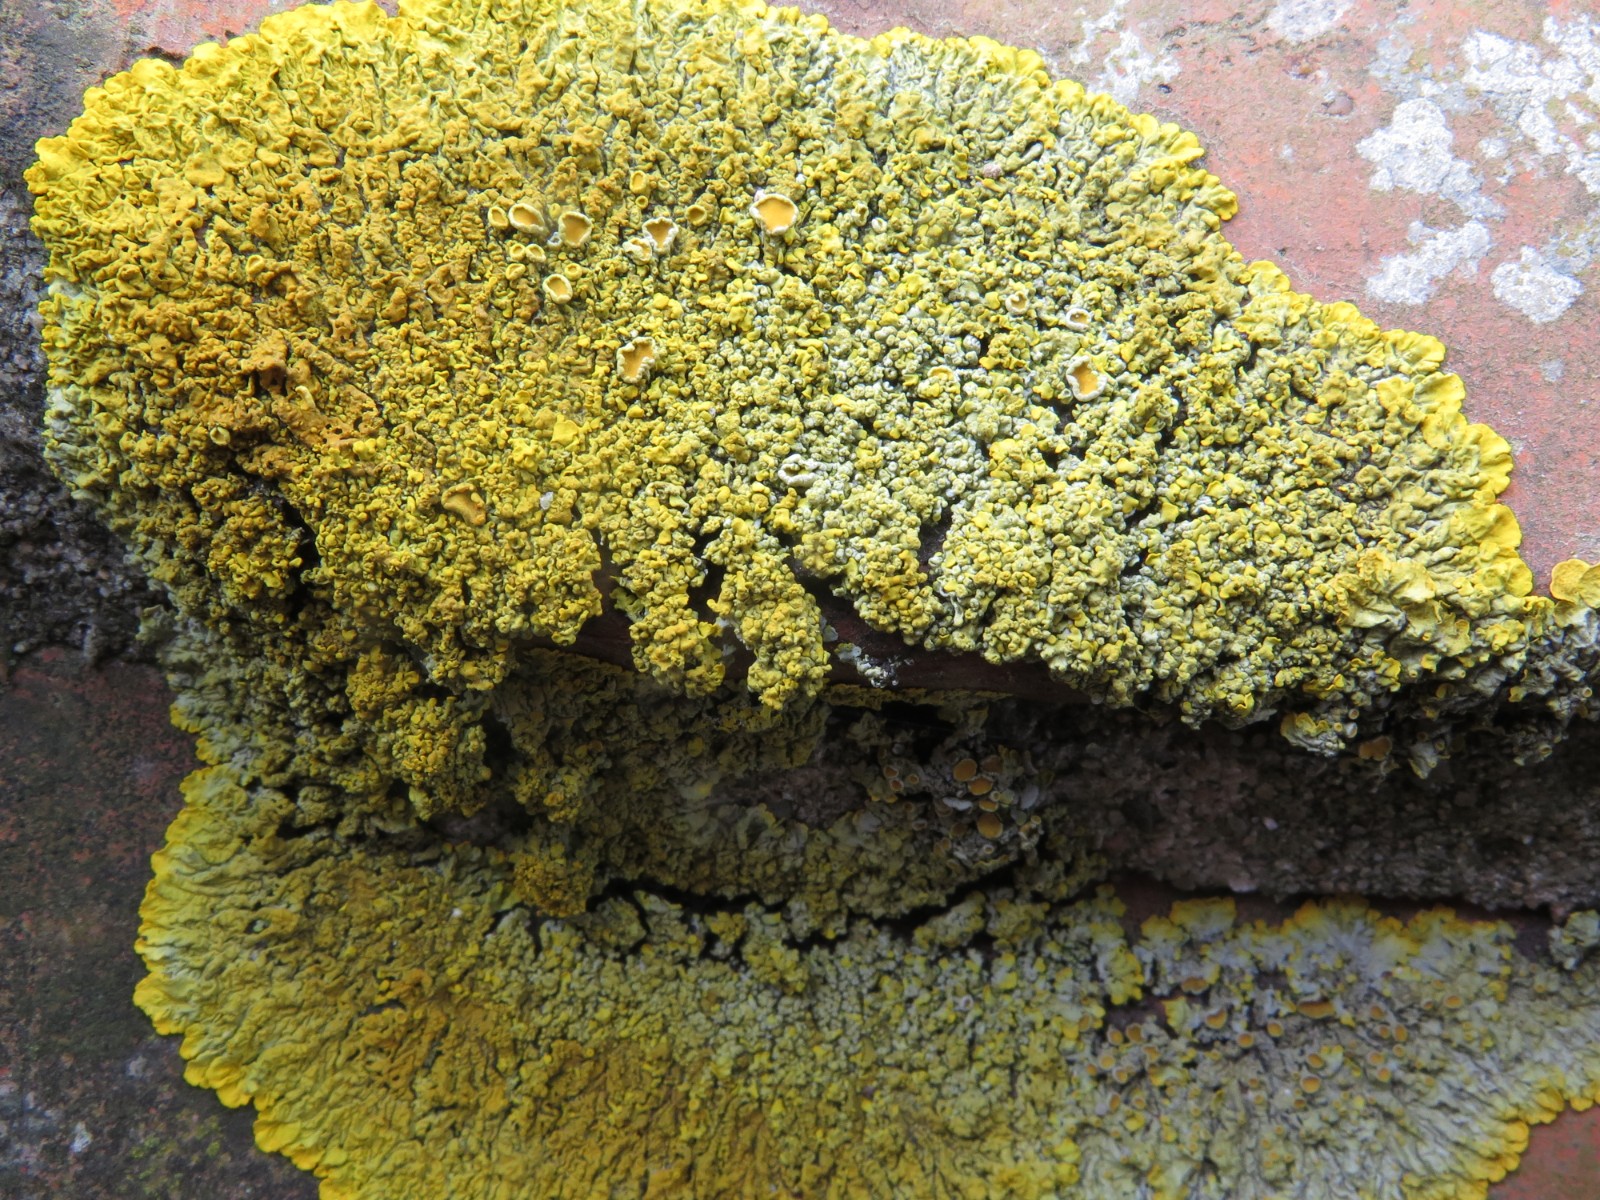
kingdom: Fungi
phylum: Ascomycota
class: Lecanoromycetes
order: Teloschistales
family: Teloschistaceae
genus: Xanthoria
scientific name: Xanthoria calcicola
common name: vortet væggelav
